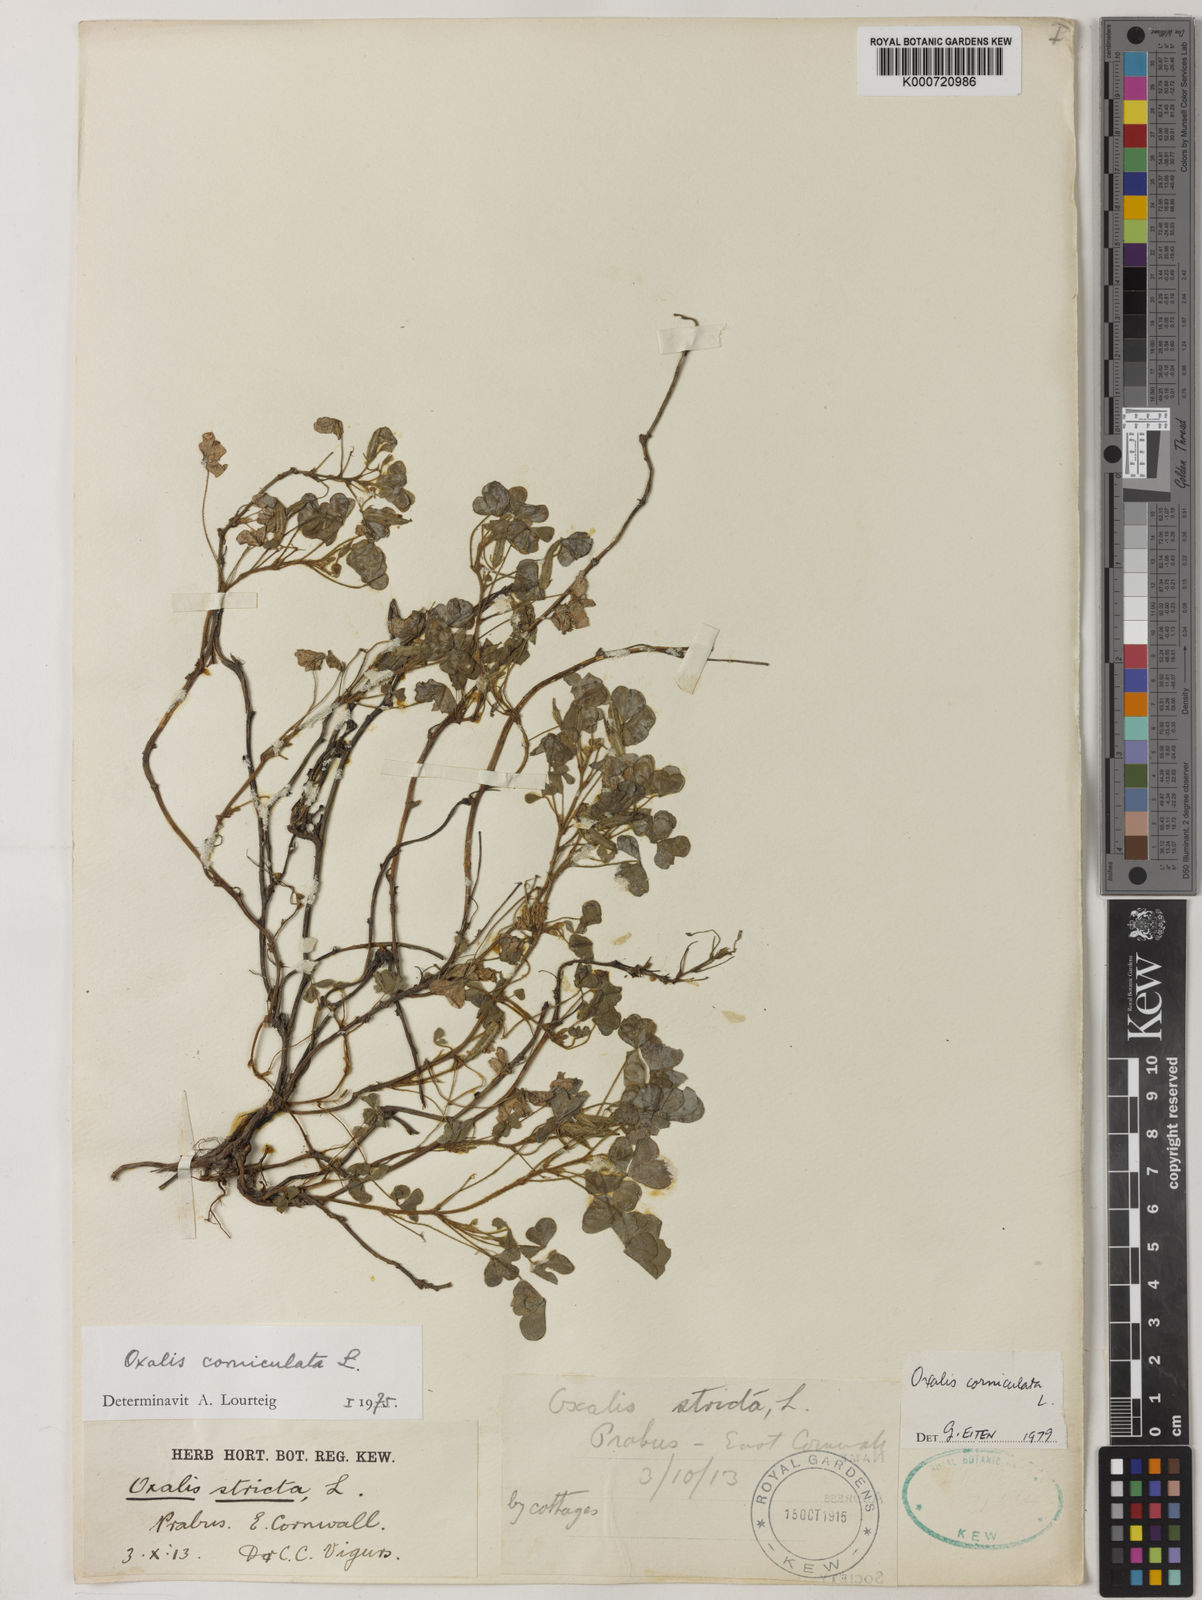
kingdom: Plantae
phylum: Tracheophyta
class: Magnoliopsida
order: Oxalidales
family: Oxalidaceae
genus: Oxalis
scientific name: Oxalis corniculata
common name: Procumbent yellow-sorrel
